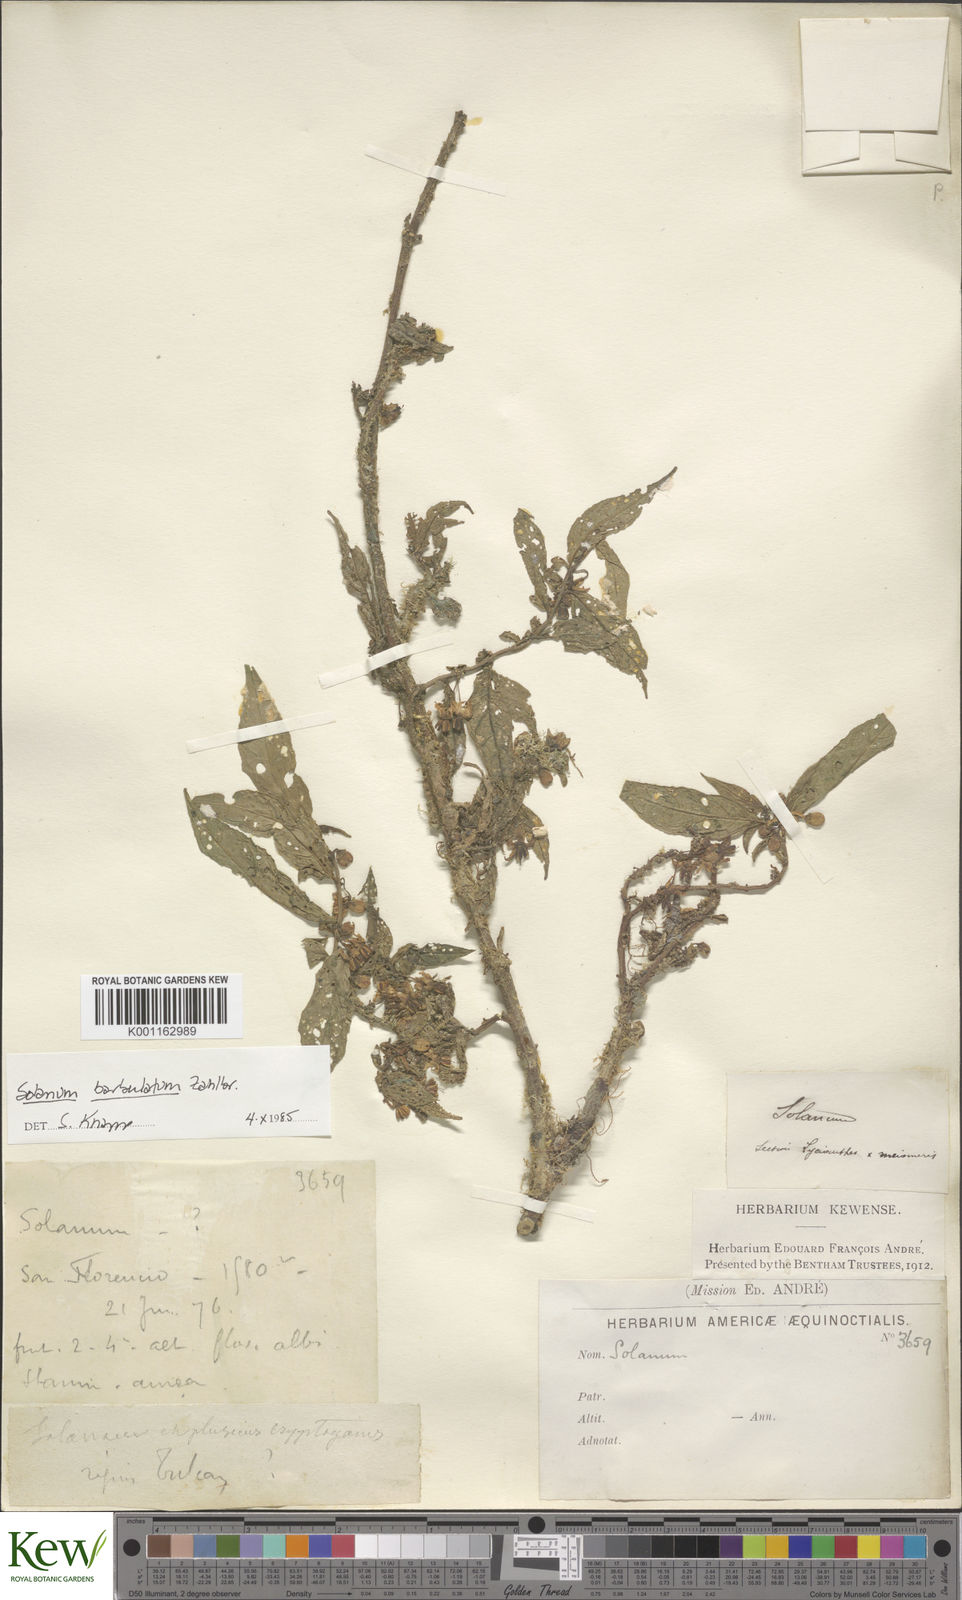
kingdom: Plantae
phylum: Tracheophyta
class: Magnoliopsida
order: Solanales
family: Solanaceae
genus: Solanum
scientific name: Solanum barbulatum
